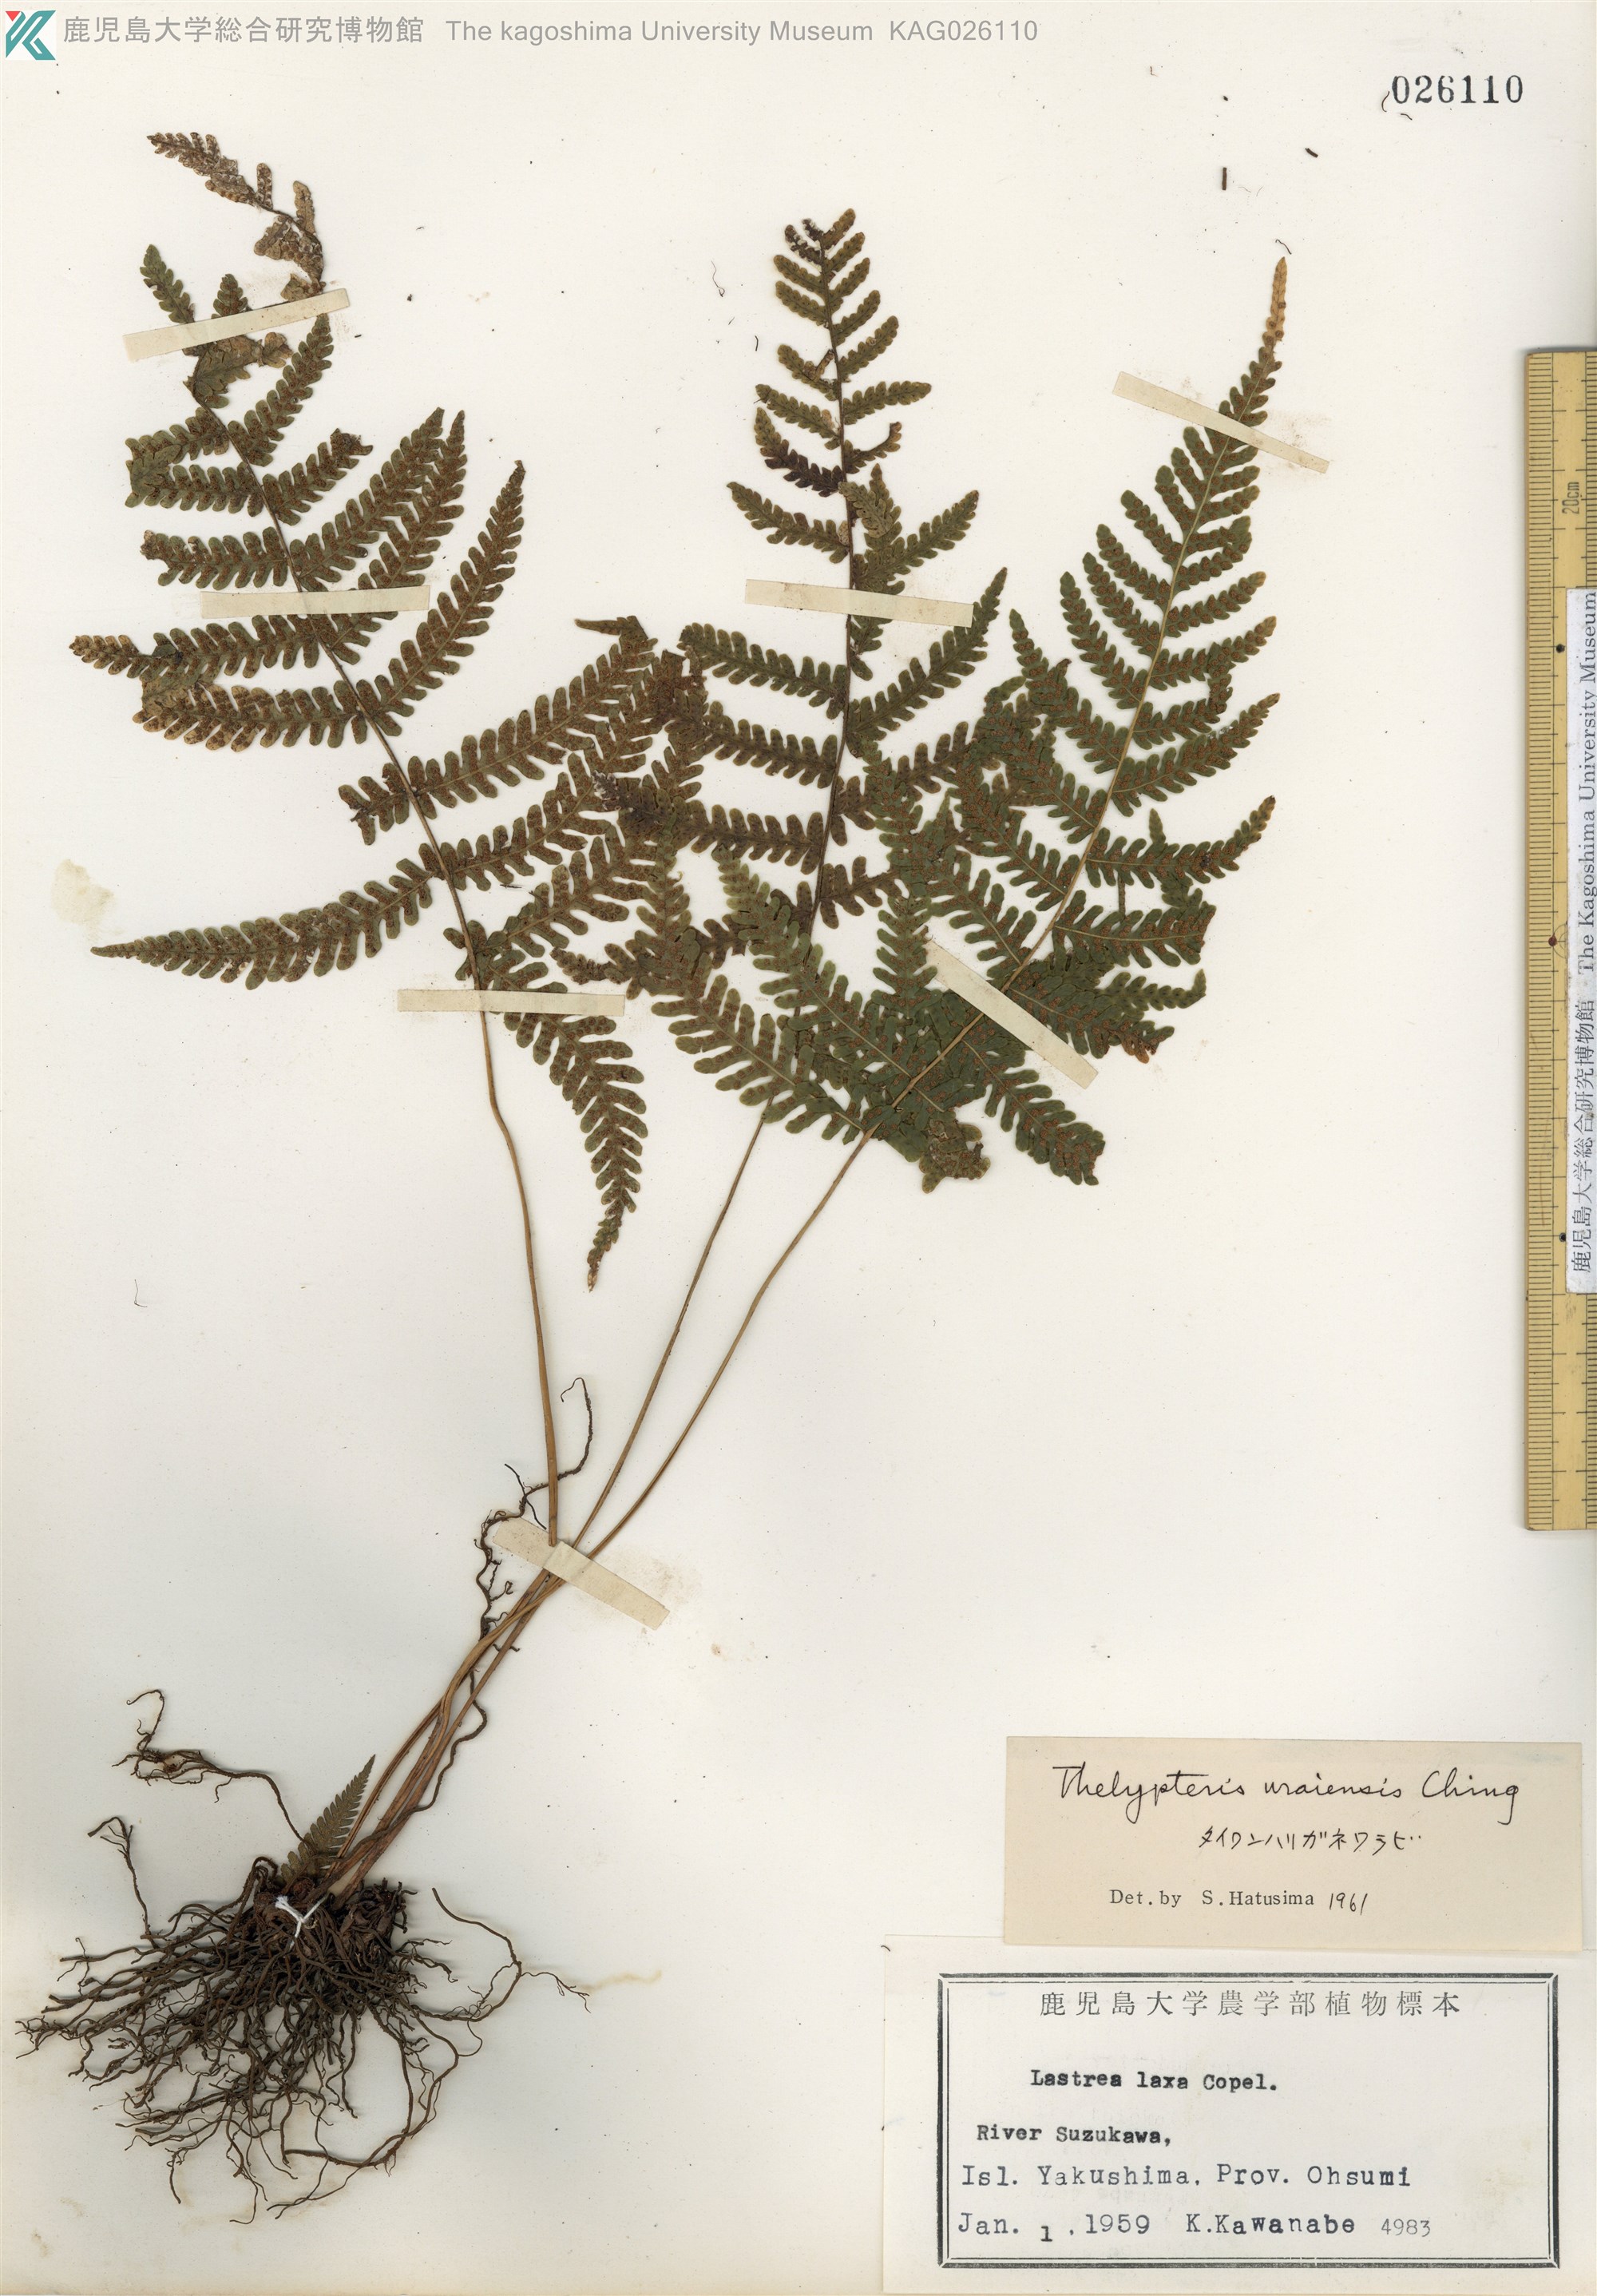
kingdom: Plantae
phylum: Tracheophyta
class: Polypodiopsida
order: Polypodiales
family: Thelypteridaceae
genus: Metathelypteris
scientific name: Metathelypteris uraiensis
